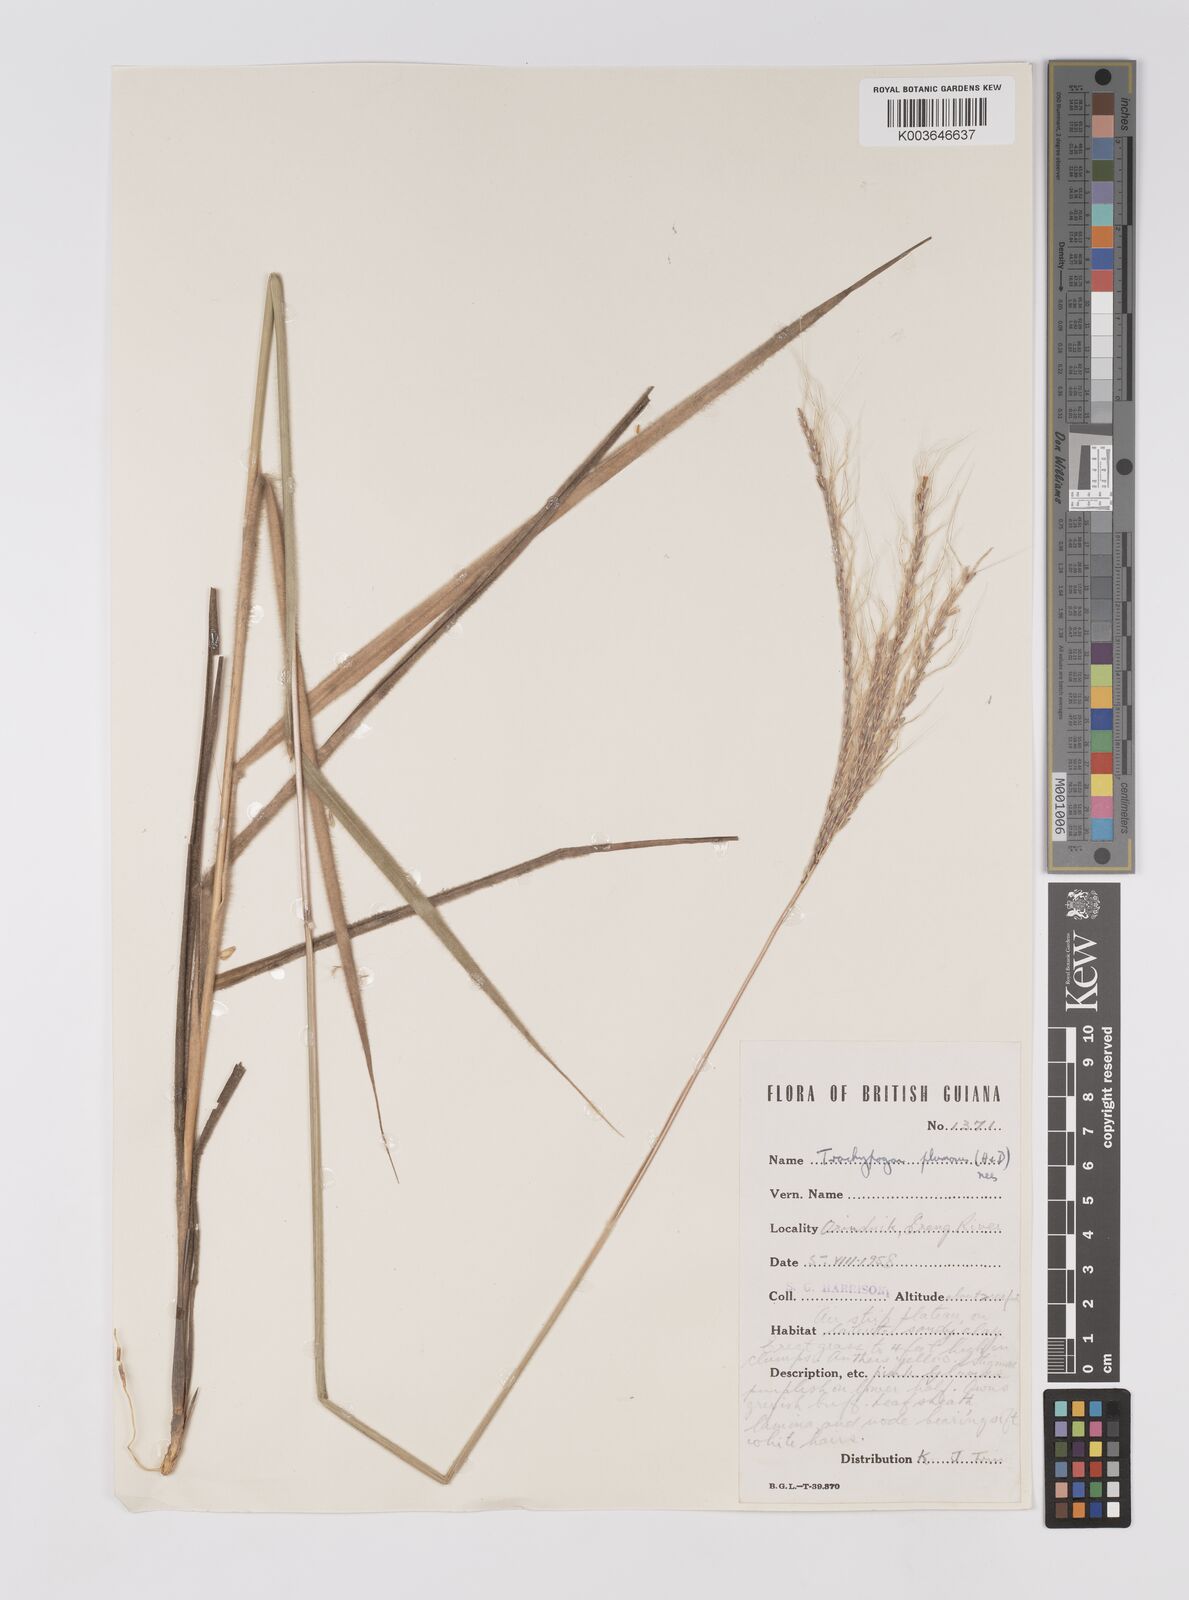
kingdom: Plantae
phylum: Tracheophyta
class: Liliopsida
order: Poales
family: Poaceae
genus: Trachypogon
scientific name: Trachypogon spicatus
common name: Crinkle-awn
